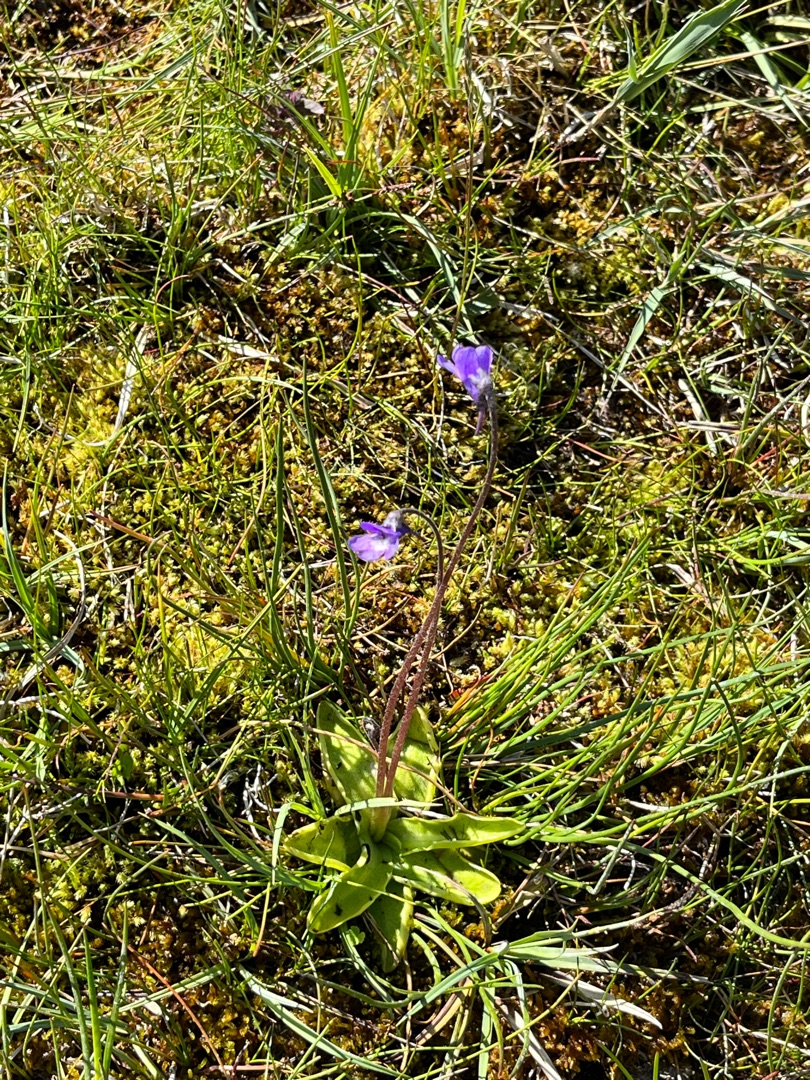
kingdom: Plantae
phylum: Tracheophyta
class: Magnoliopsida
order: Lamiales
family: Lentibulariaceae
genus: Pinguicula
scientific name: Pinguicula vulgaris
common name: Vibefedt
